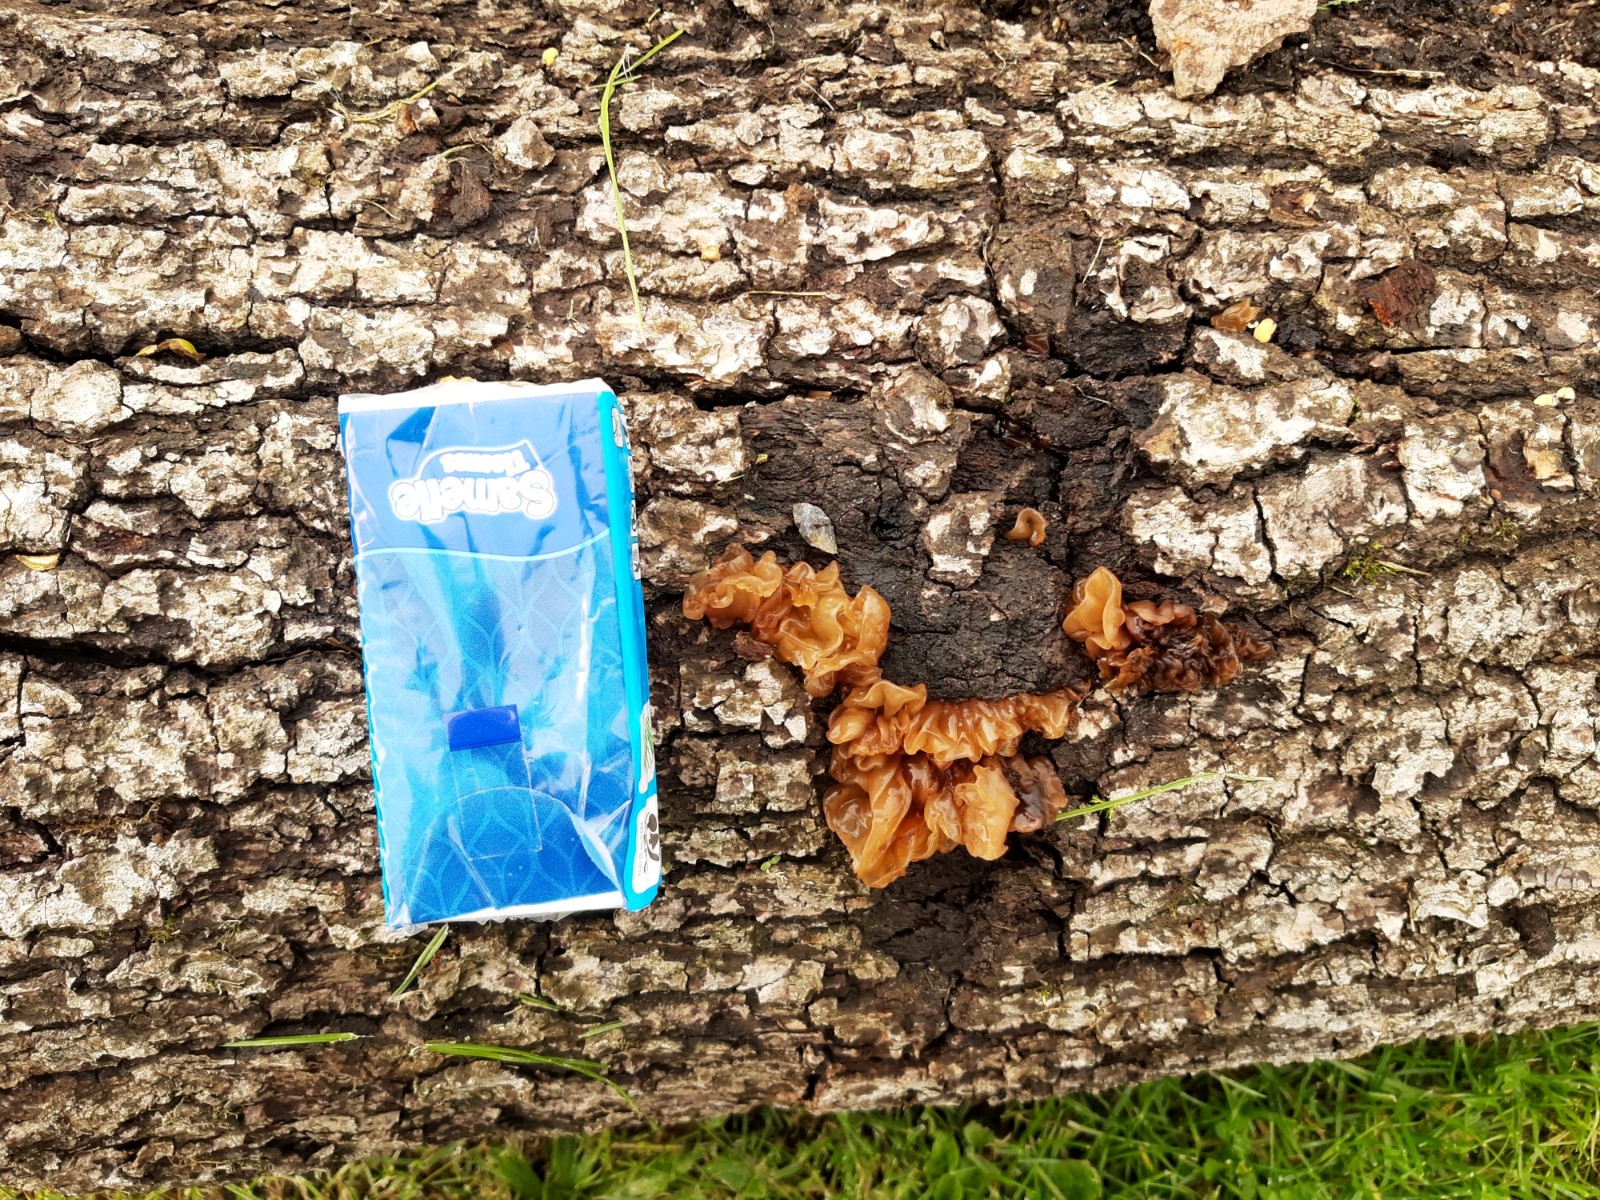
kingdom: Fungi
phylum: Basidiomycota
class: Tremellomycetes
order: Tremellales
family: Tremellaceae
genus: Phaeotremella
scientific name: Phaeotremella frondosa
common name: kæmpe-bævresvamp
